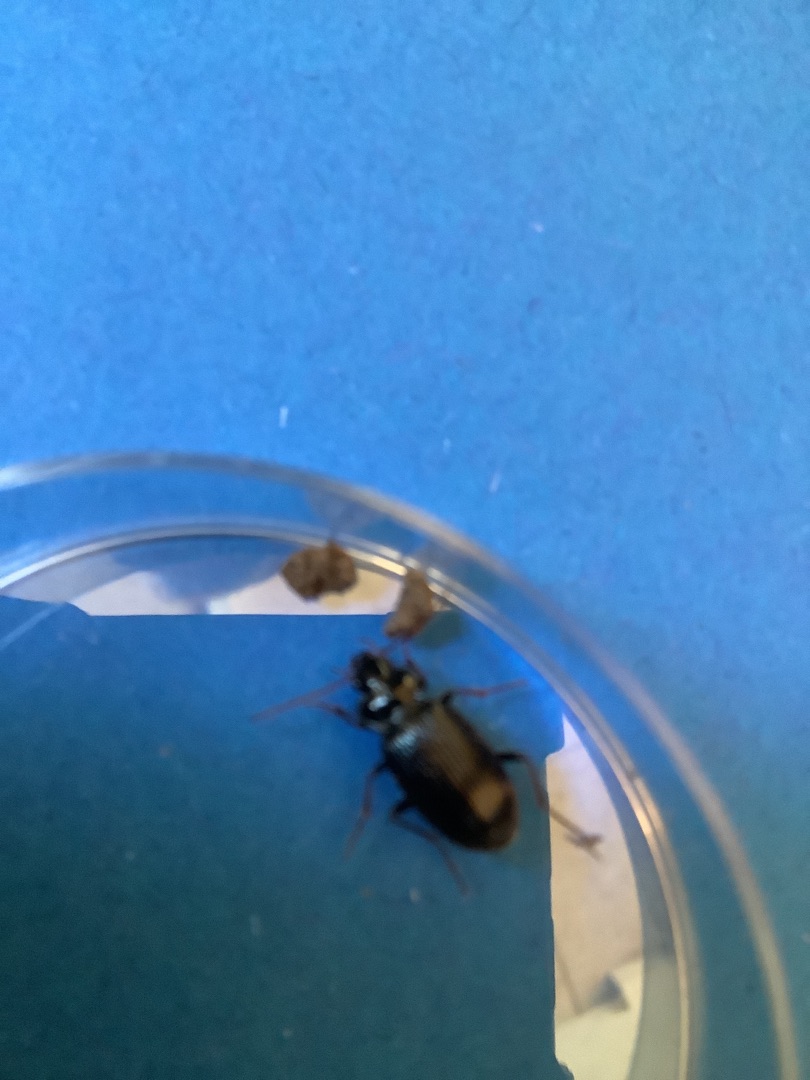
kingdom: Animalia
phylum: Arthropoda
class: Insecta
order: Coleoptera
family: Carabidae
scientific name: Carabidae
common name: Løbebiller
